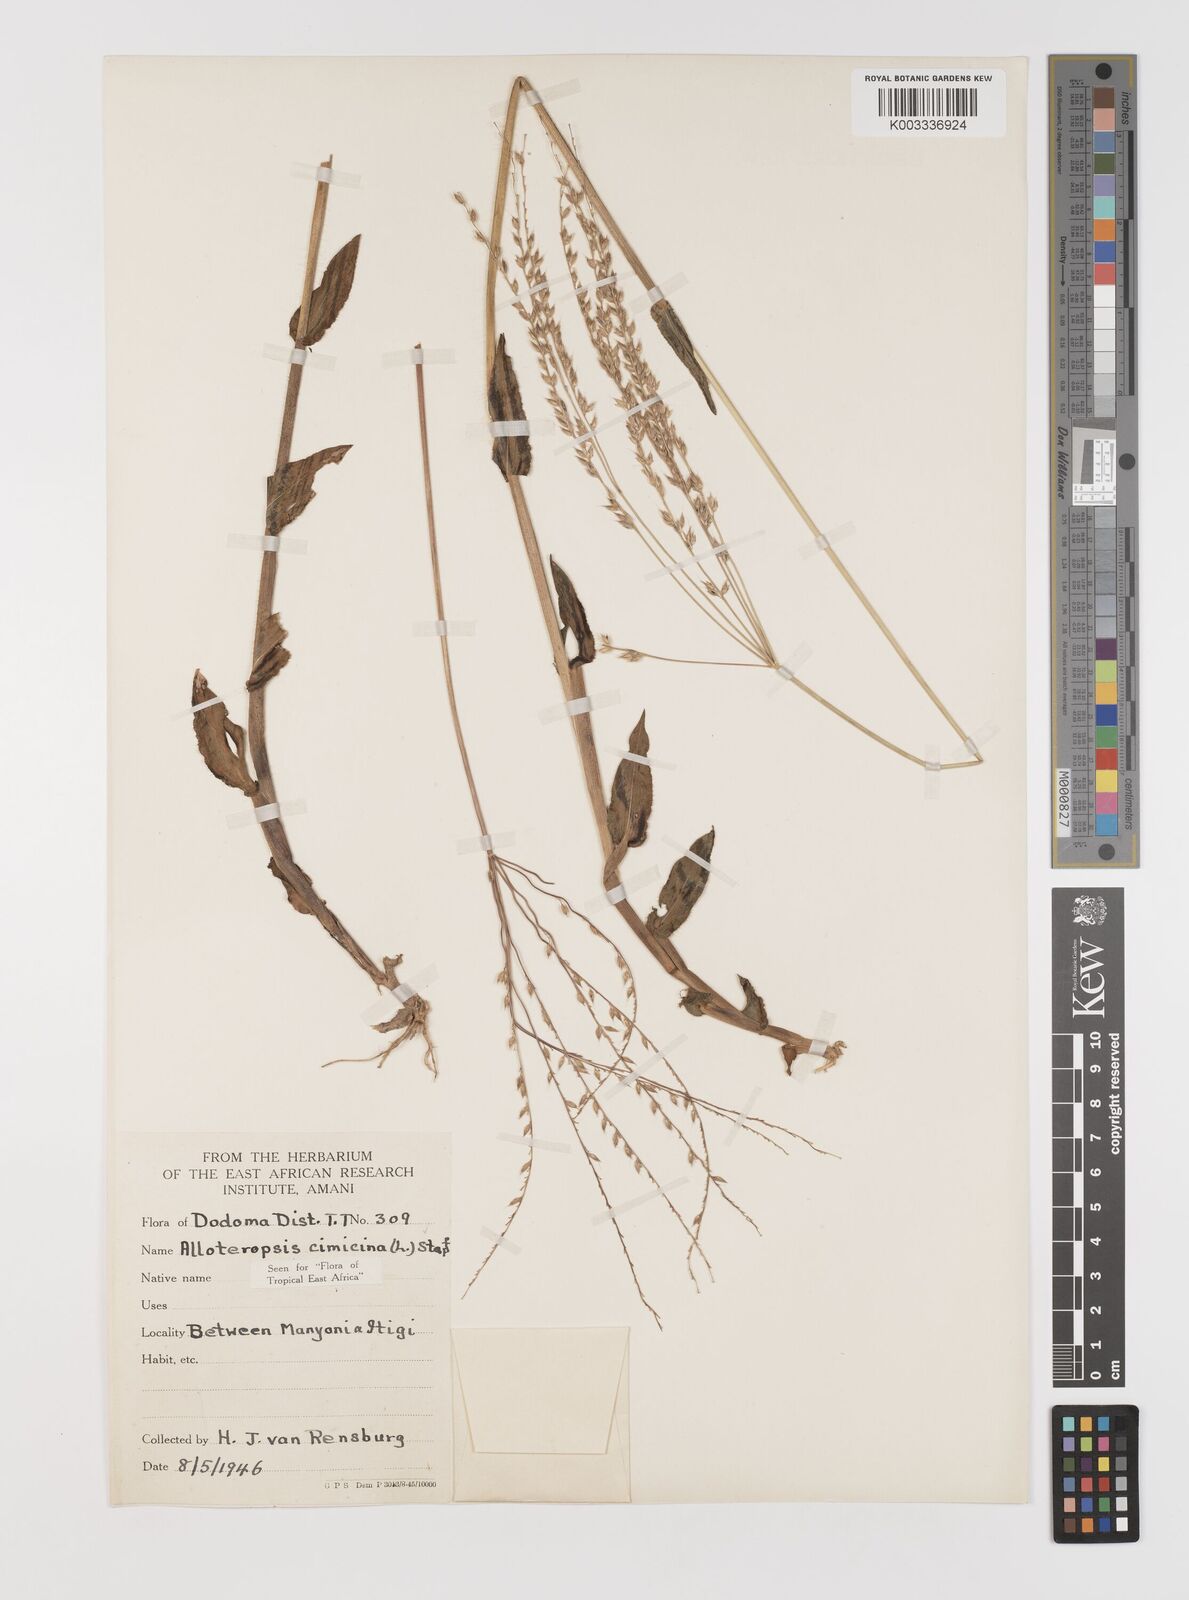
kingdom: Plantae
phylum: Tracheophyta
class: Liliopsida
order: Poales
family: Poaceae
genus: Alloteropsis
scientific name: Alloteropsis cimicina
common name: Summergrass
